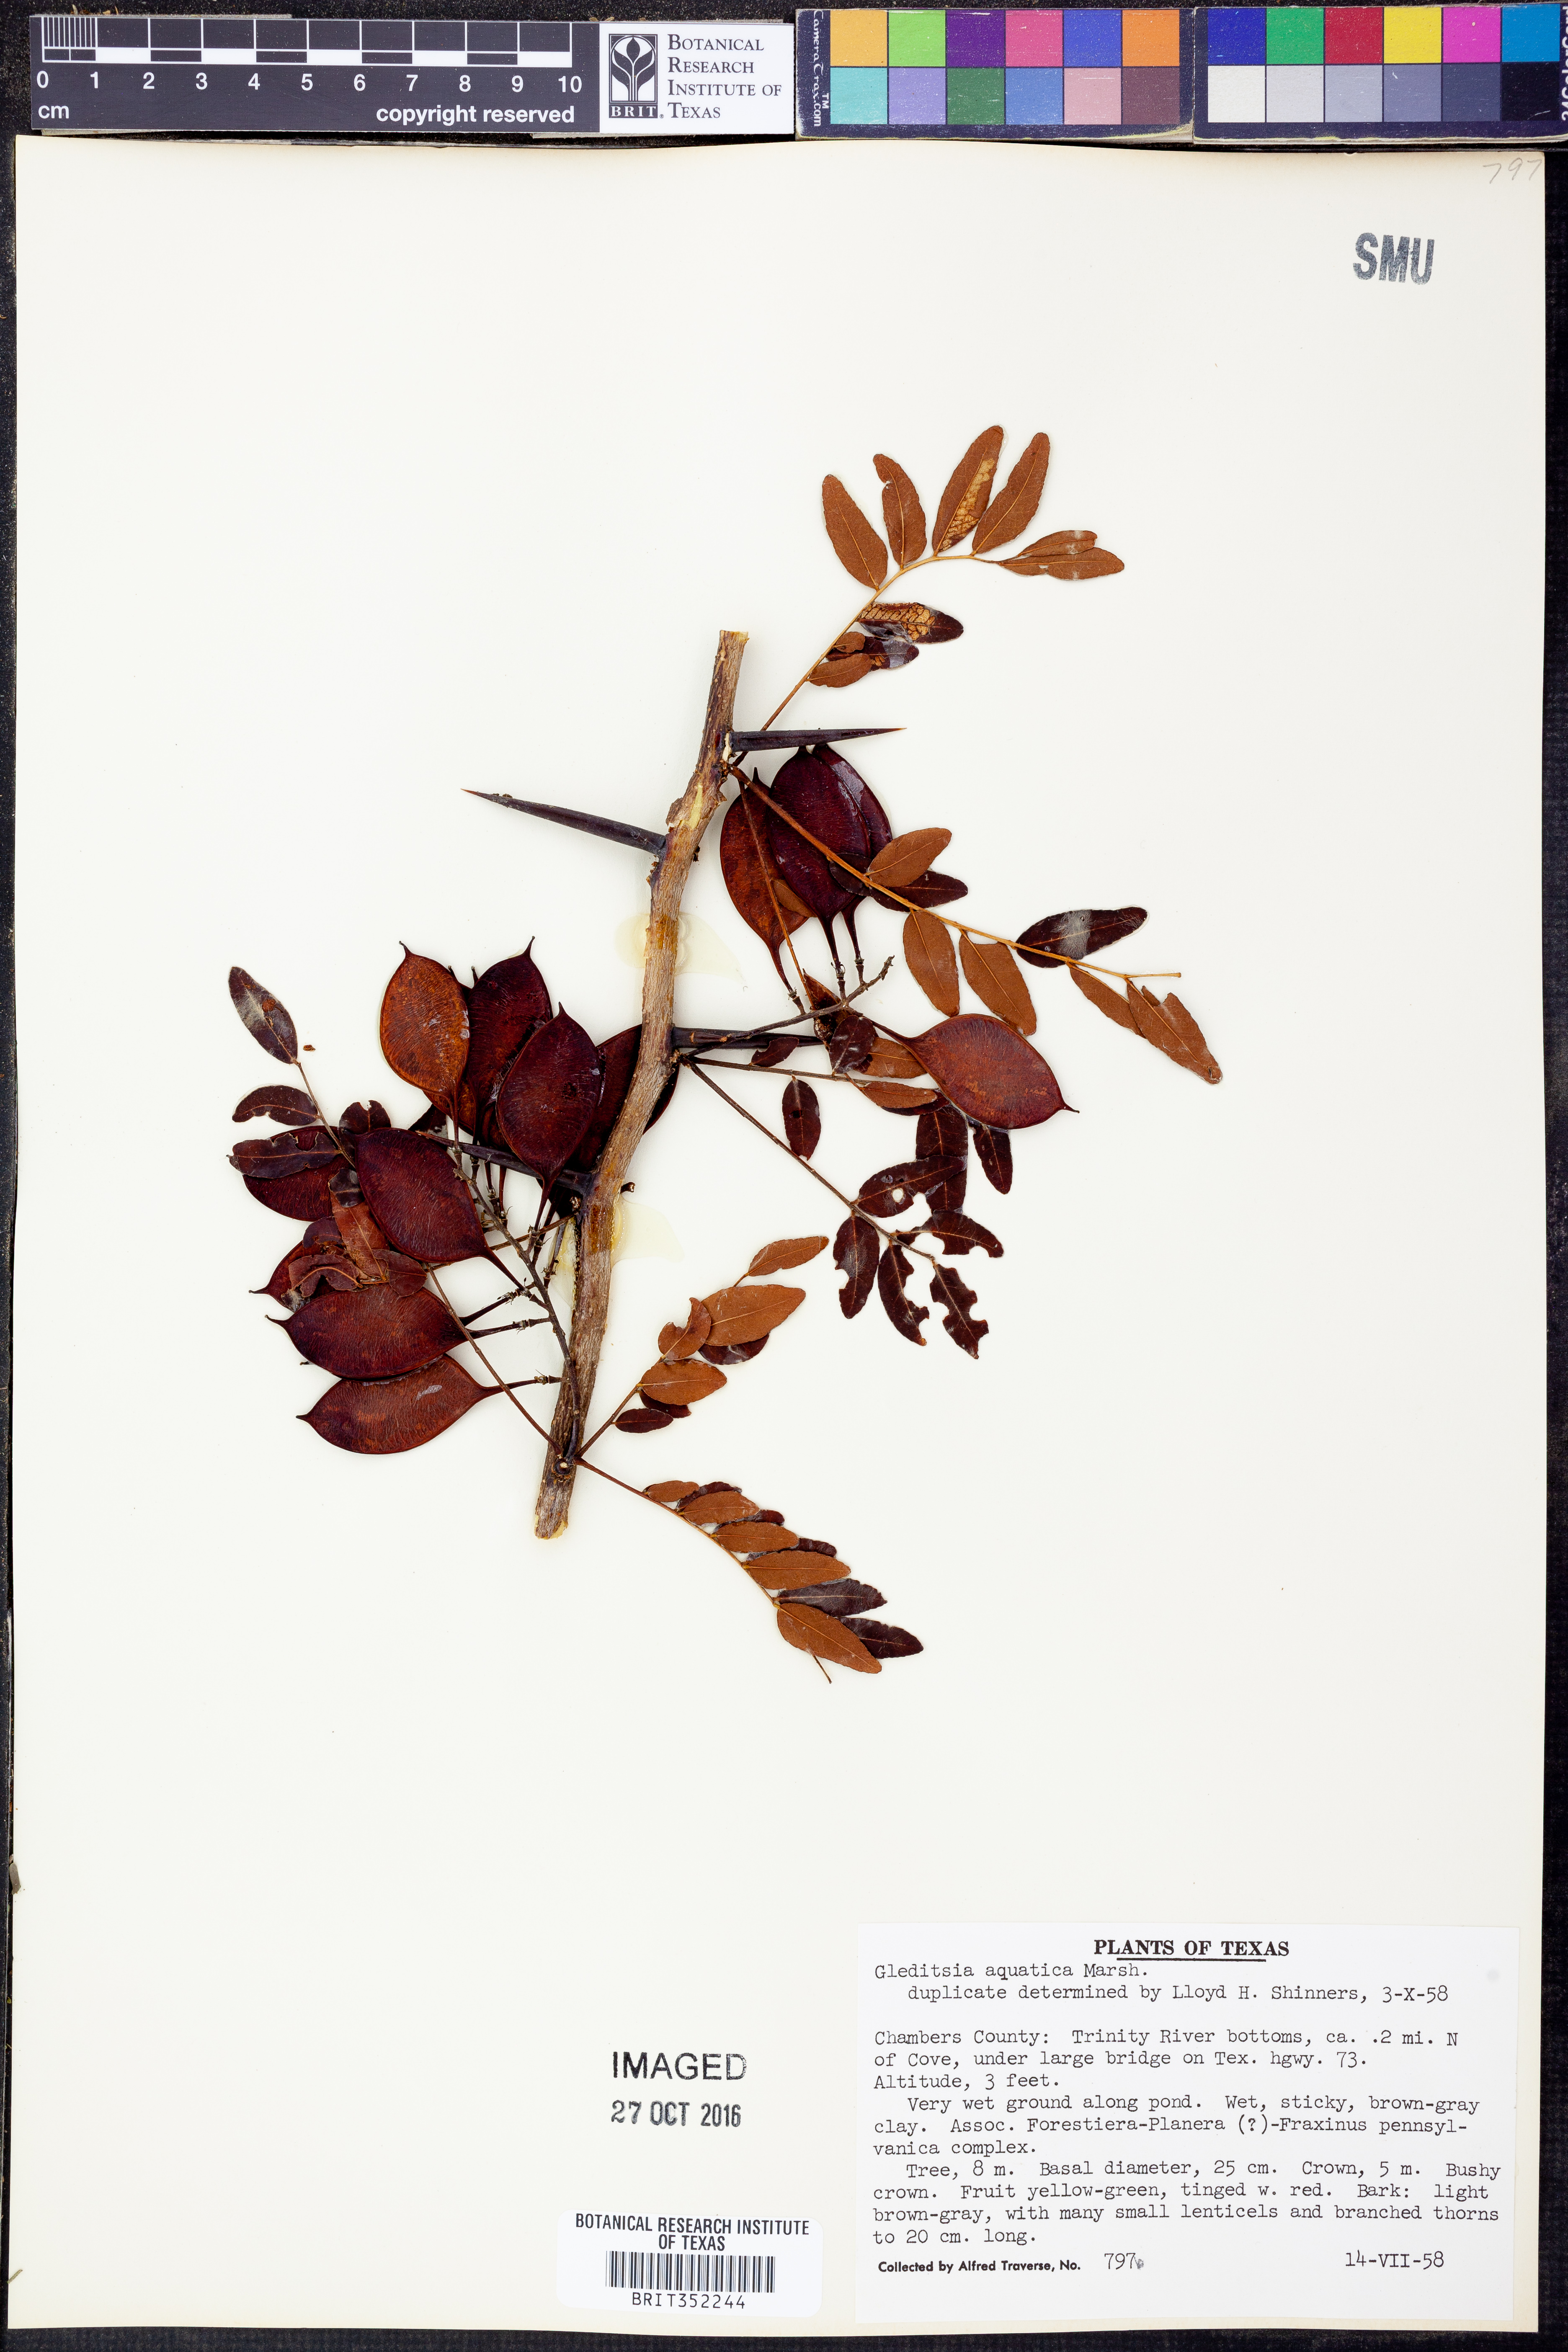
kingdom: Plantae
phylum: Tracheophyta
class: Magnoliopsida
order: Fabales
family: Fabaceae
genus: Gleditsia
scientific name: Gleditsia aquatica
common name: Swamp-locust
